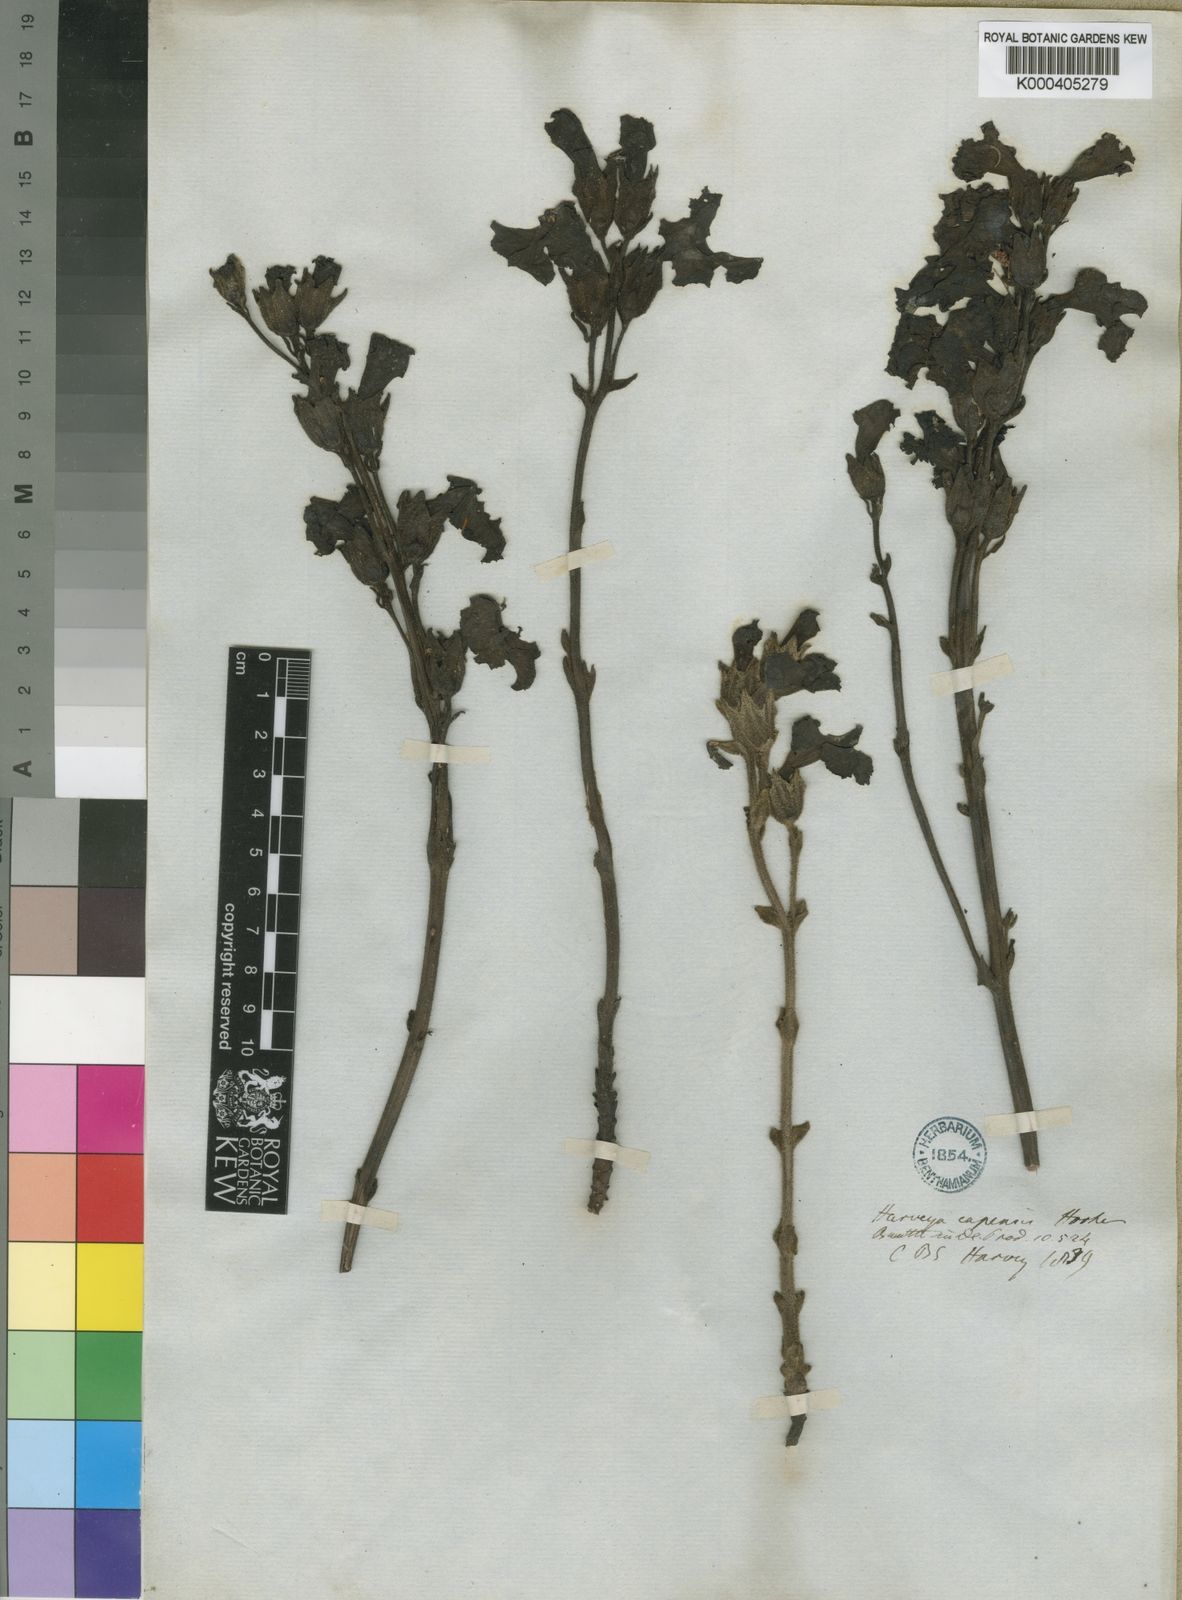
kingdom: Plantae
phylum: Tracheophyta
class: Magnoliopsida
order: Lamiales
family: Orobanchaceae
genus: Harveya
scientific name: Harveya capensis
